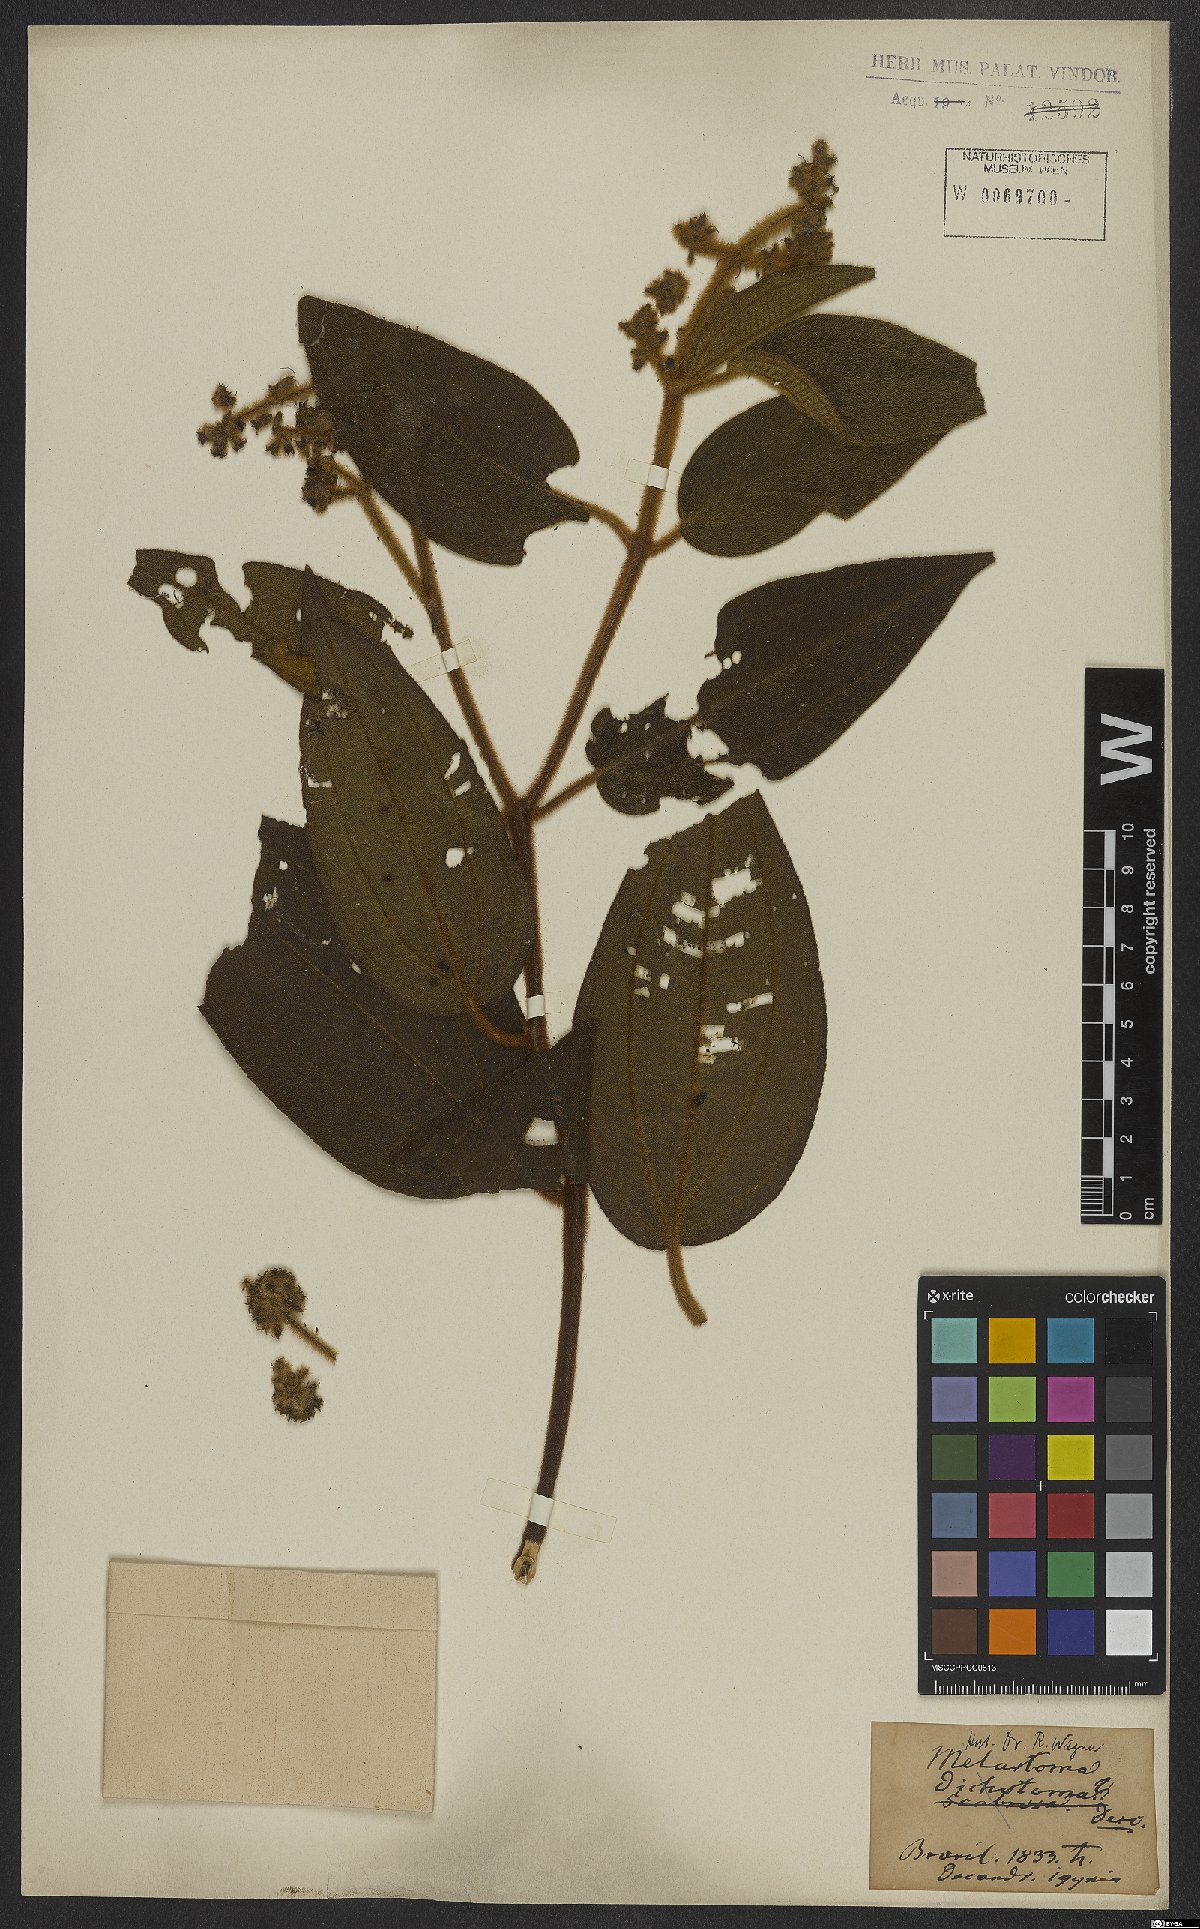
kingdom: Plantae
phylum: Tracheophyta
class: Magnoliopsida
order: Myrtales
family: Melastomataceae
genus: Miconia
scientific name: Miconia sulcicaulis
